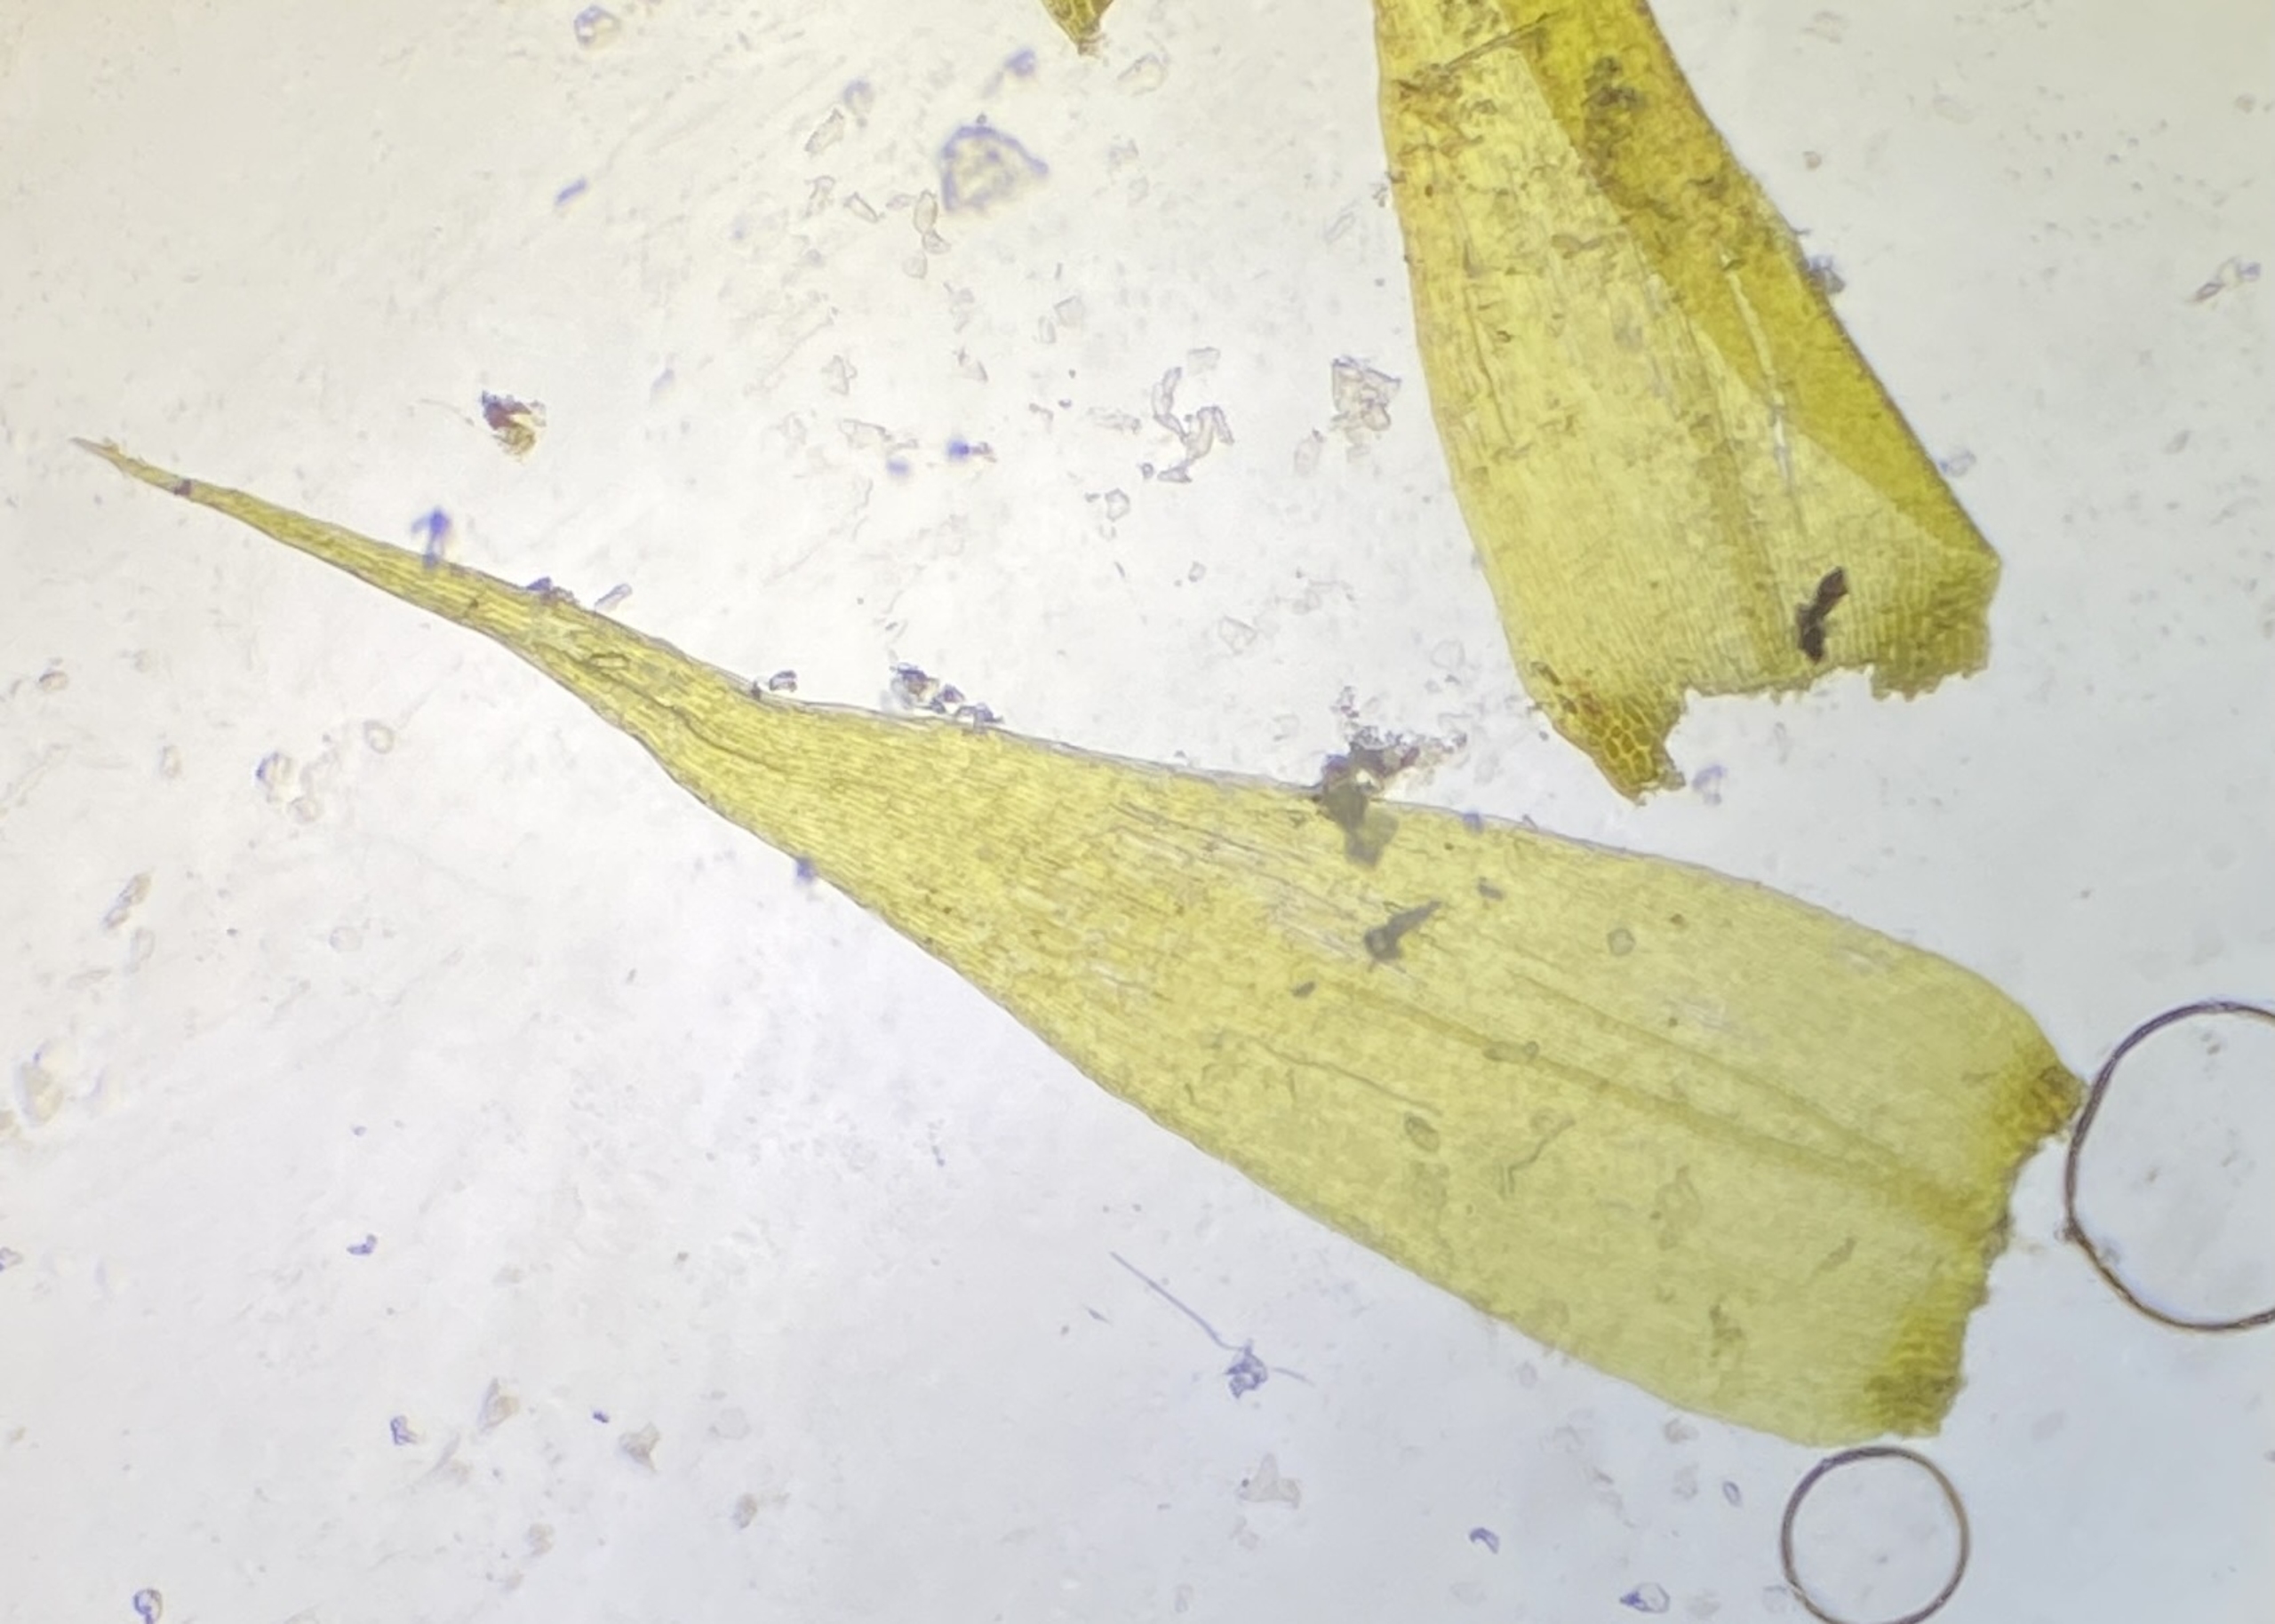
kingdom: Plantae
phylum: Bryophyta
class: Bryopsida
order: Hypnales
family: Amblystegiaceae
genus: Drepanocladus
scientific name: Drepanocladus polygamus
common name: Kyst-guldstjernemos
